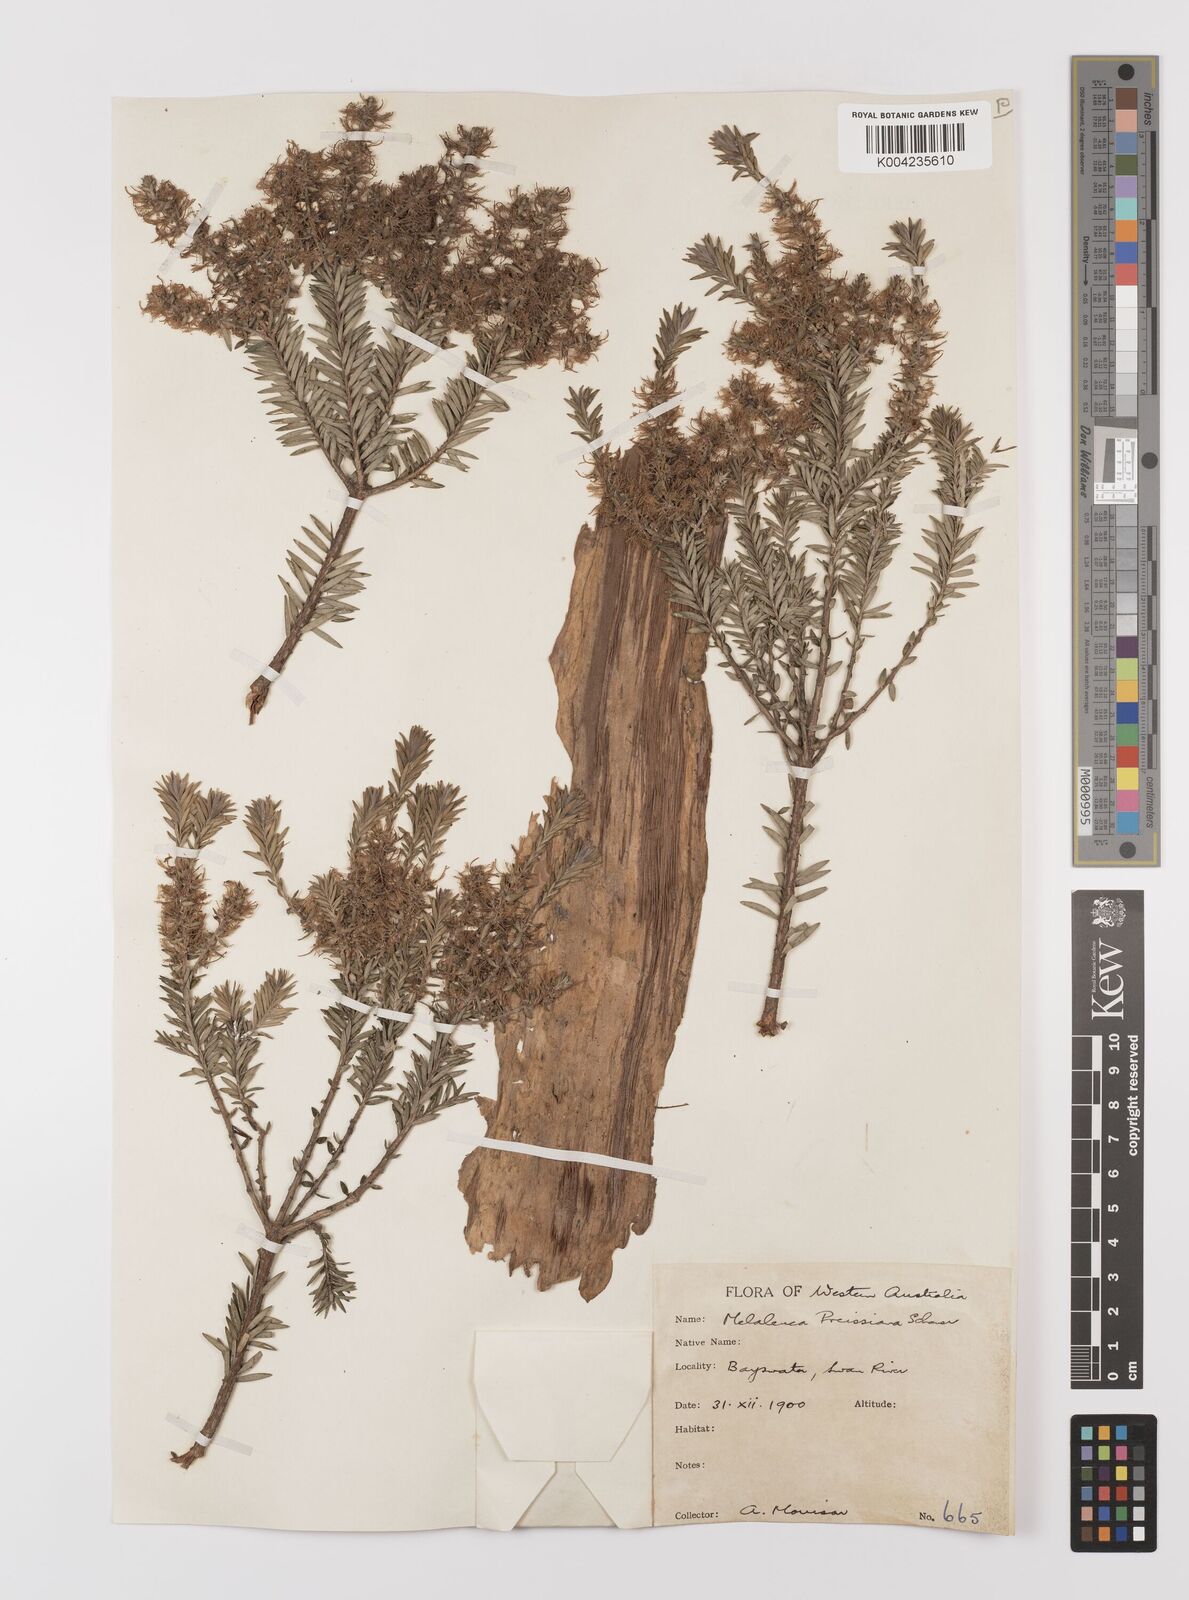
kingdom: Plantae
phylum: Tracheophyta
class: Magnoliopsida
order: Myrtales
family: Myrtaceae
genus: Melaleuca
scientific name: Melaleuca preissiana
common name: Preiss's paperbark
